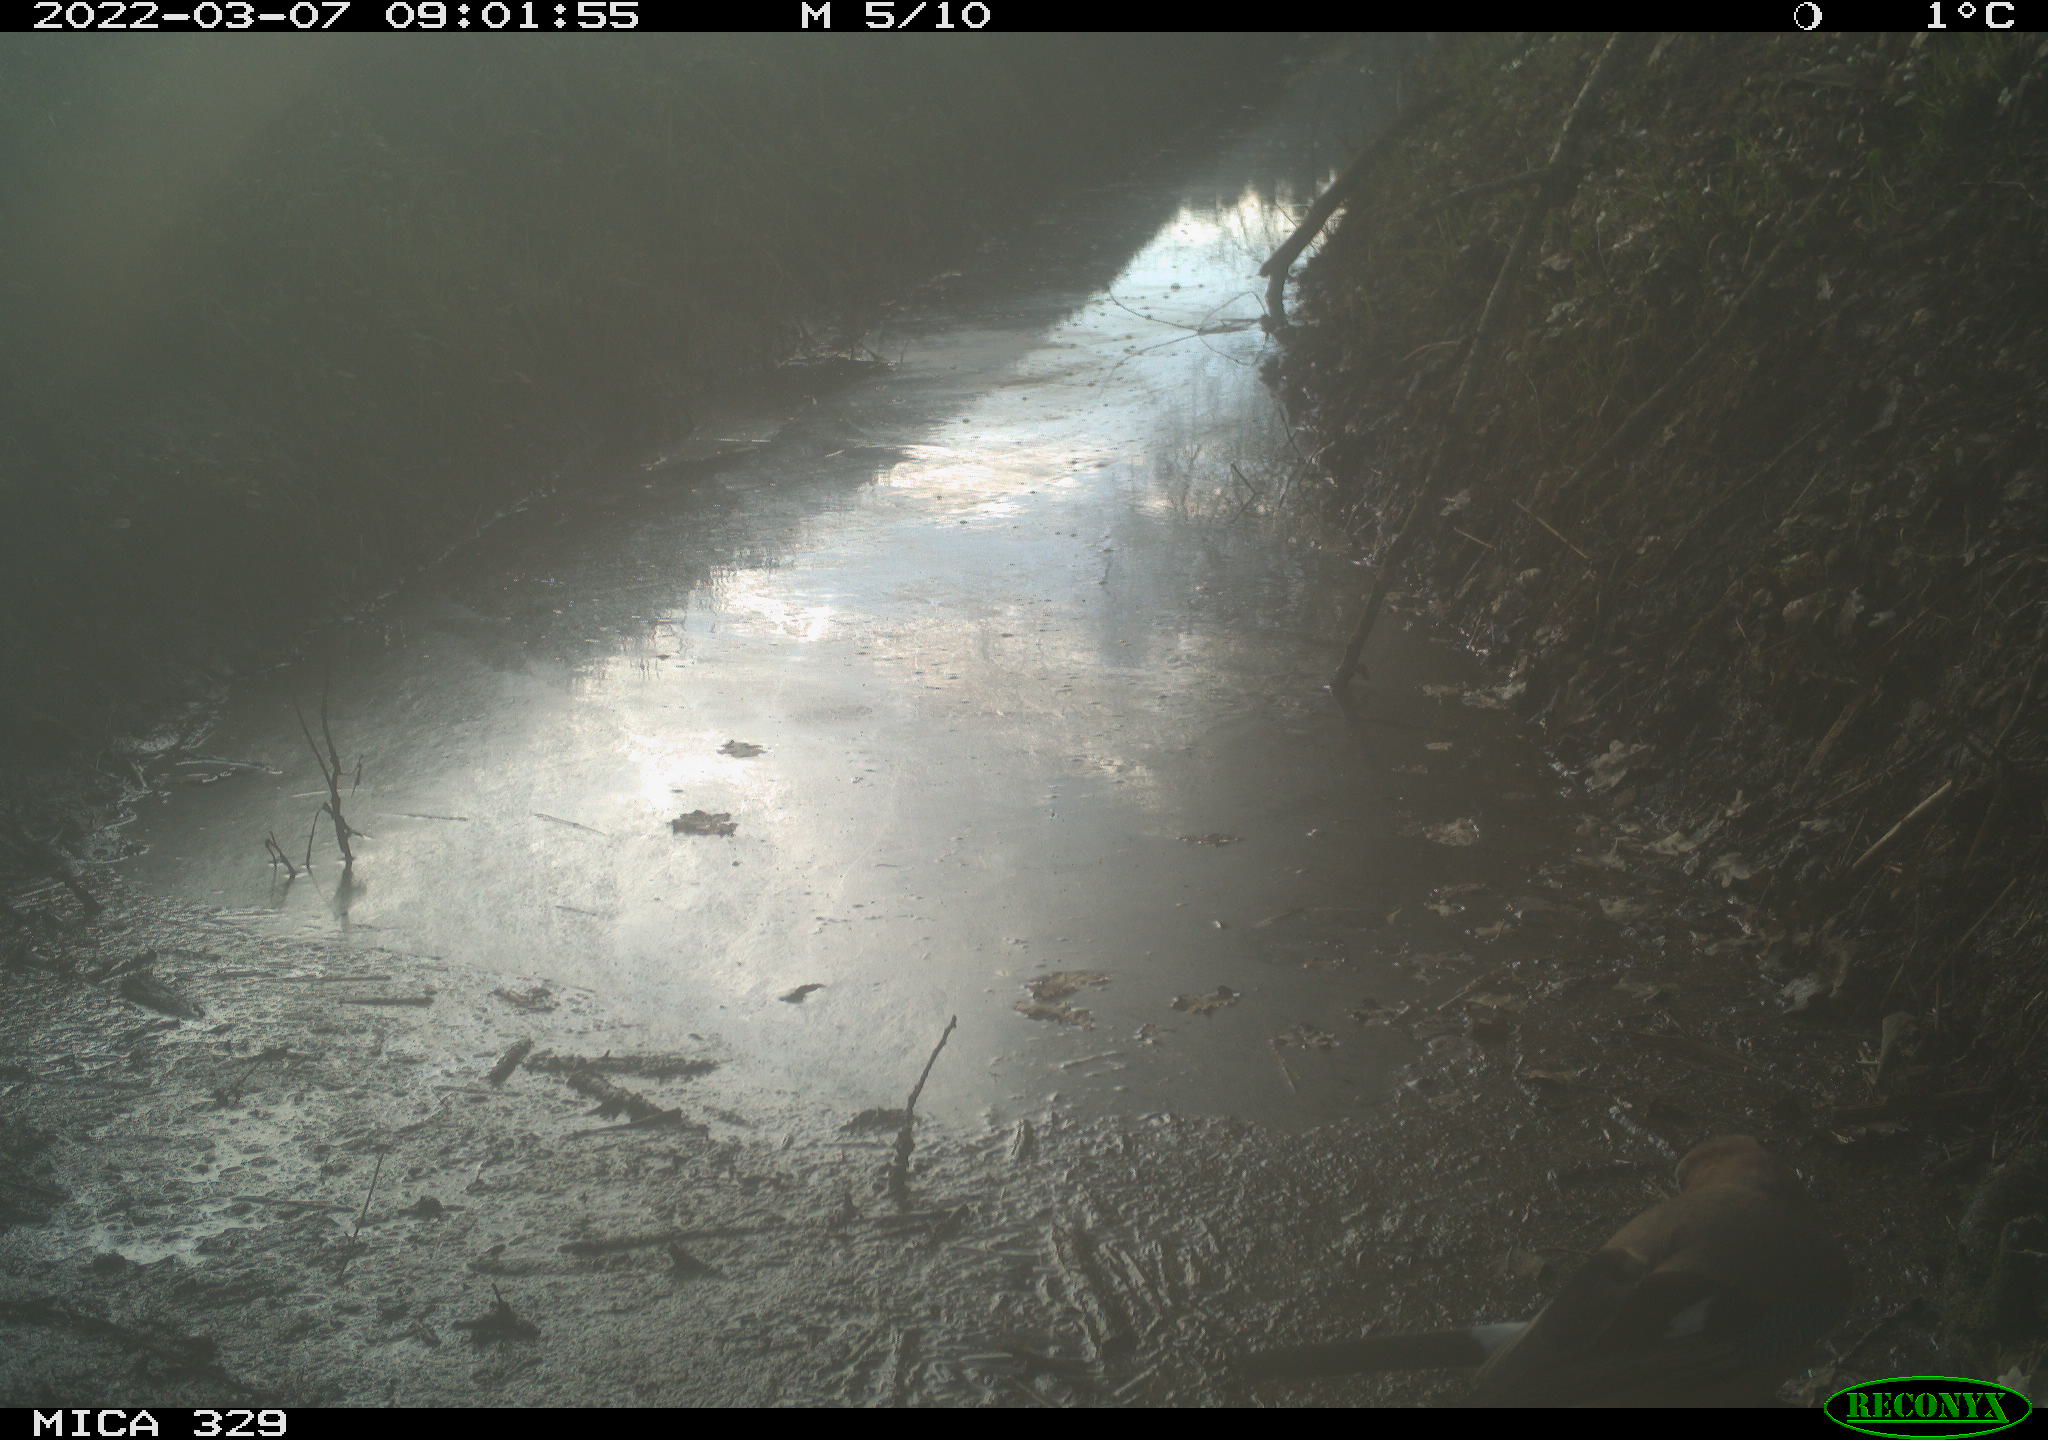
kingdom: Animalia
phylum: Chordata
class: Aves
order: Passeriformes
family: Corvidae
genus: Garrulus
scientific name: Garrulus glandarius
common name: Eurasian jay
